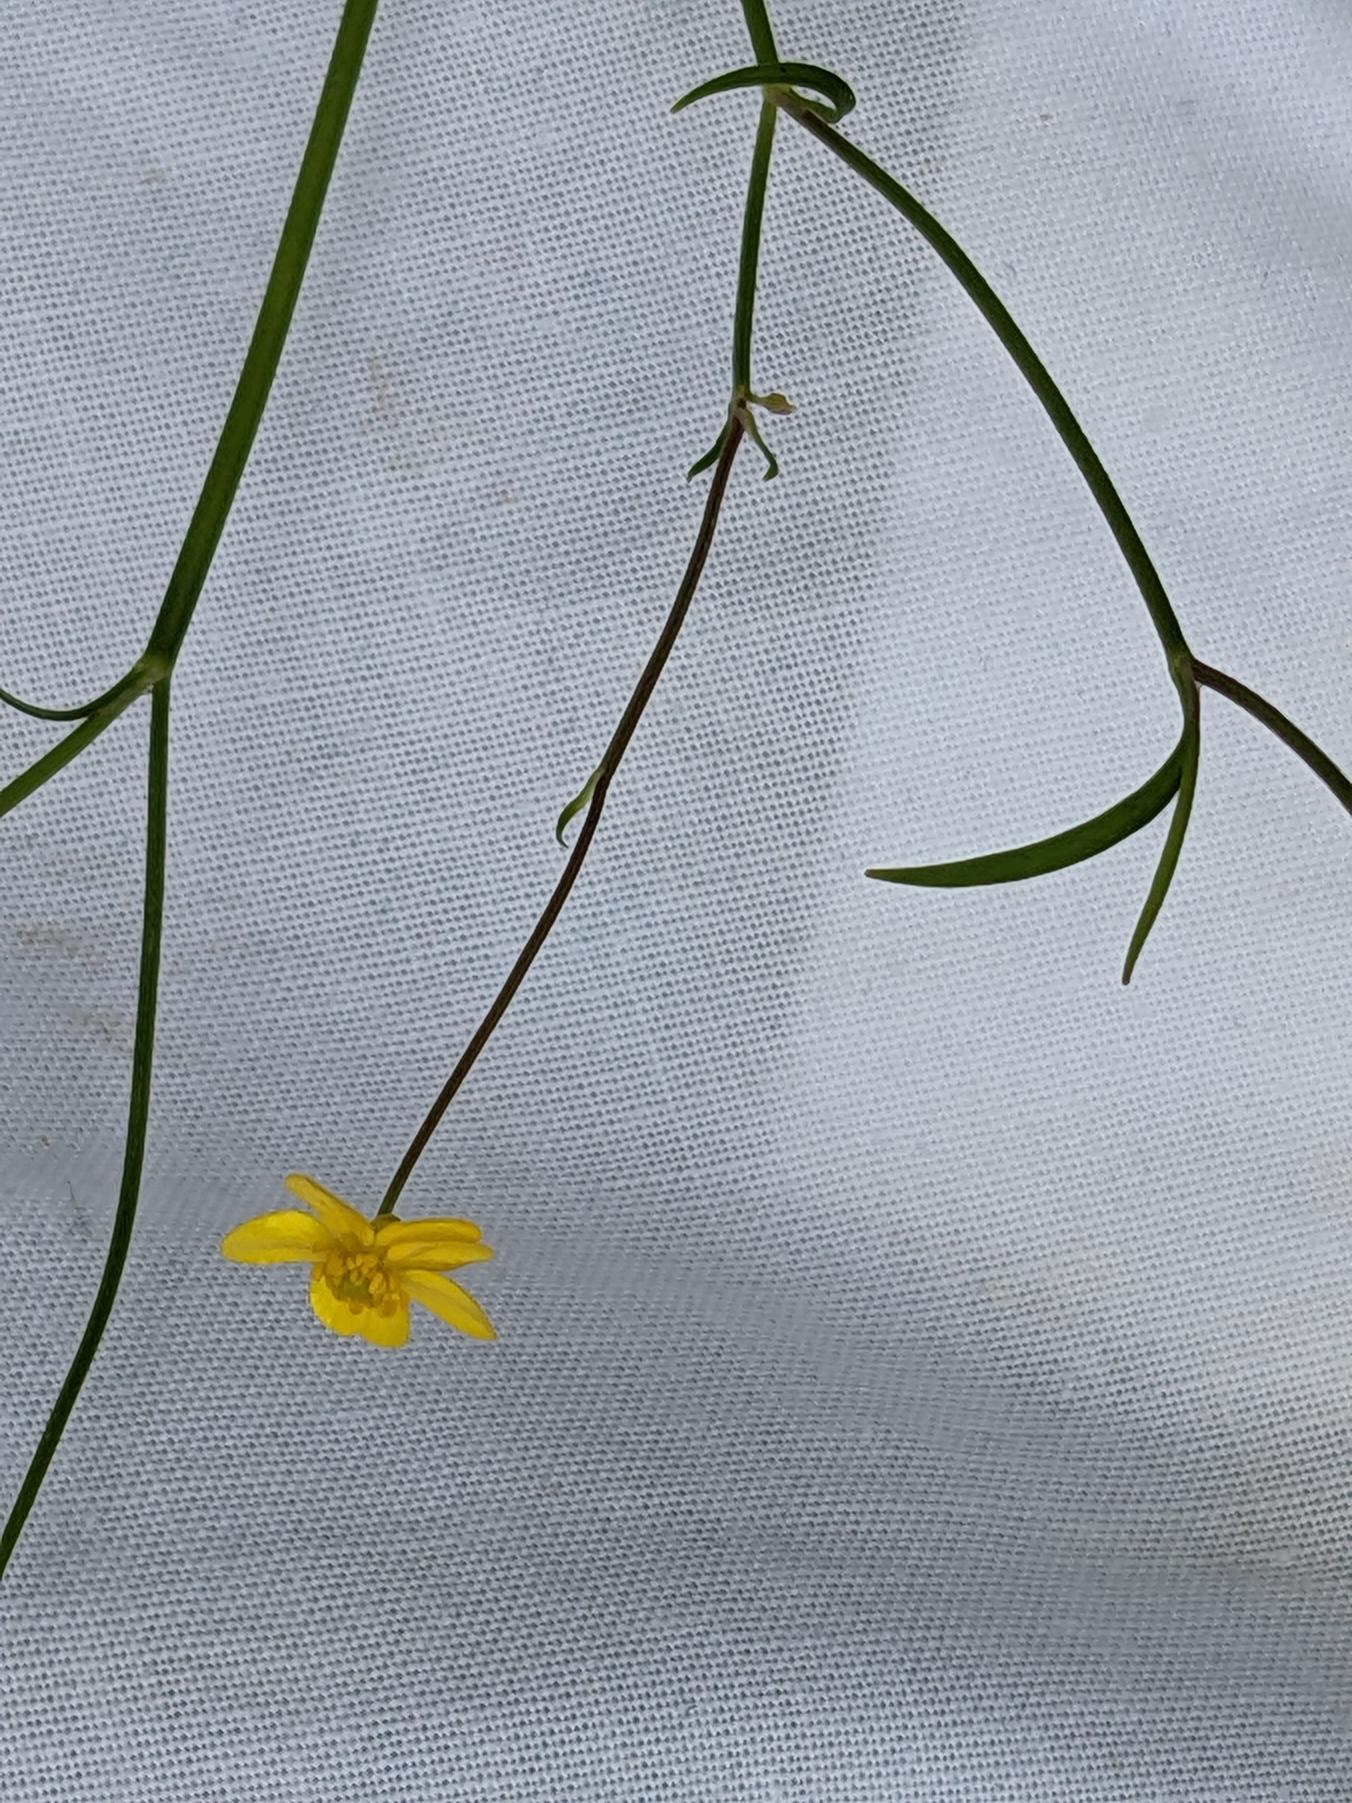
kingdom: Plantae
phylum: Tracheophyta
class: Magnoliopsida
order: Ranunculales
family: Ranunculaceae
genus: Ranunculus
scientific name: Ranunculus flammula
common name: Kær-ranunkel
